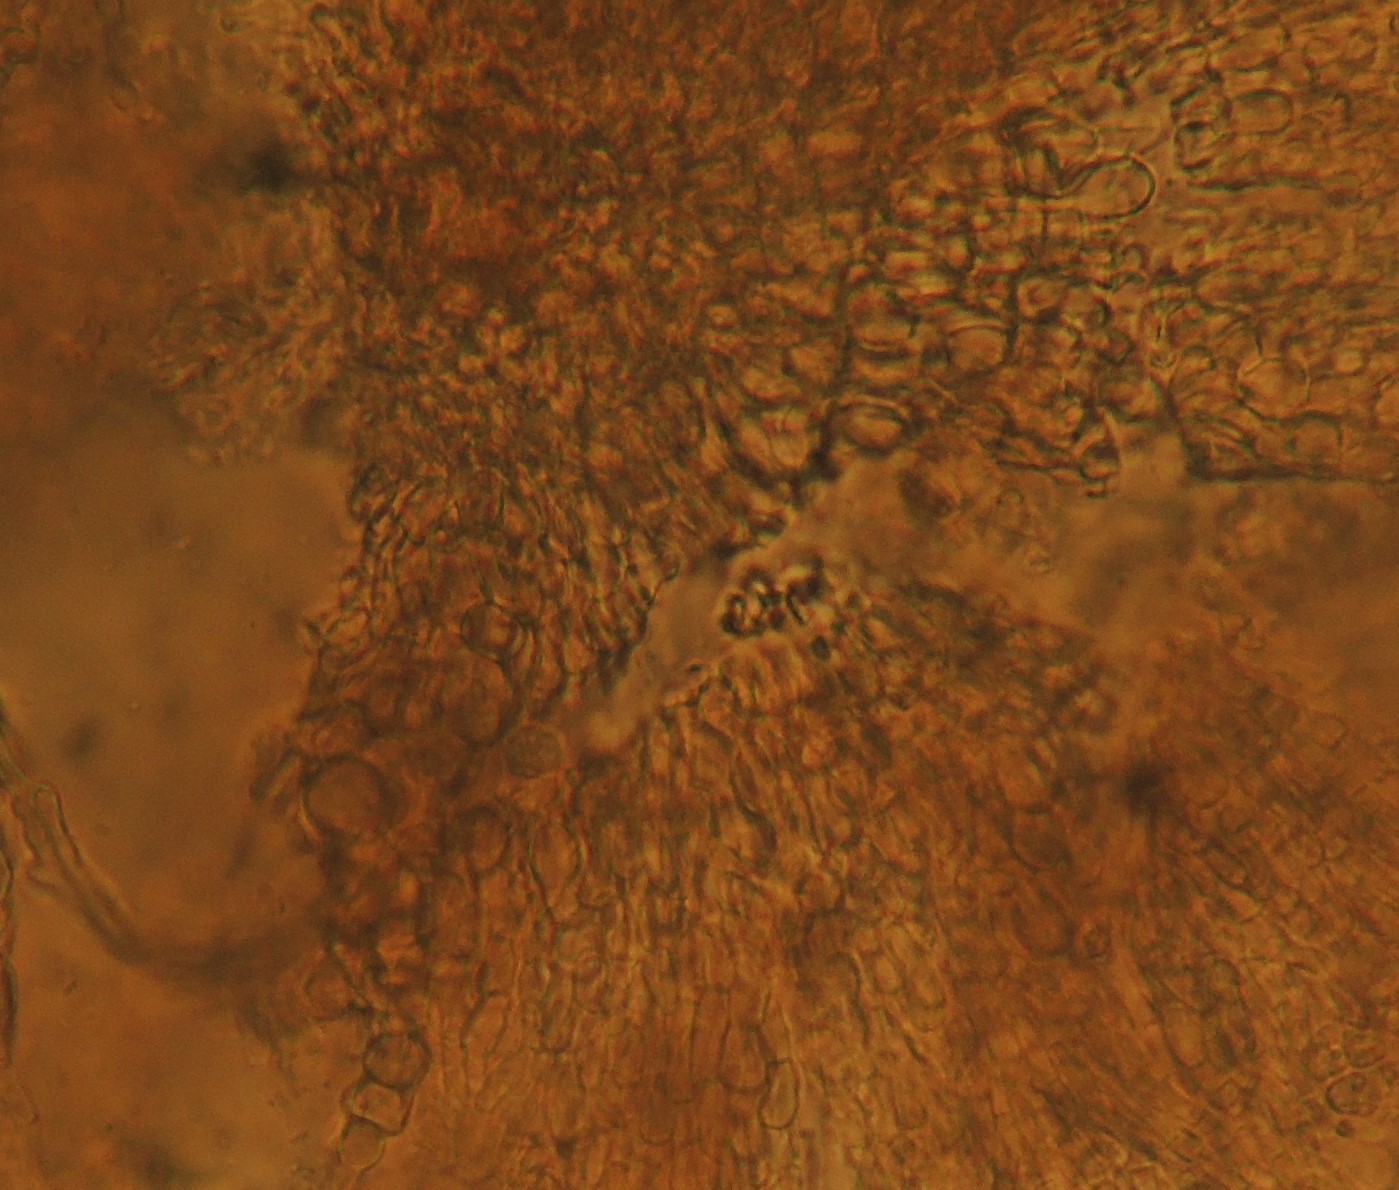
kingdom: Fungi
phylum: Ascomycota
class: Leotiomycetes
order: Helotiales
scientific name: Helotiales
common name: stilkskiveordenen
